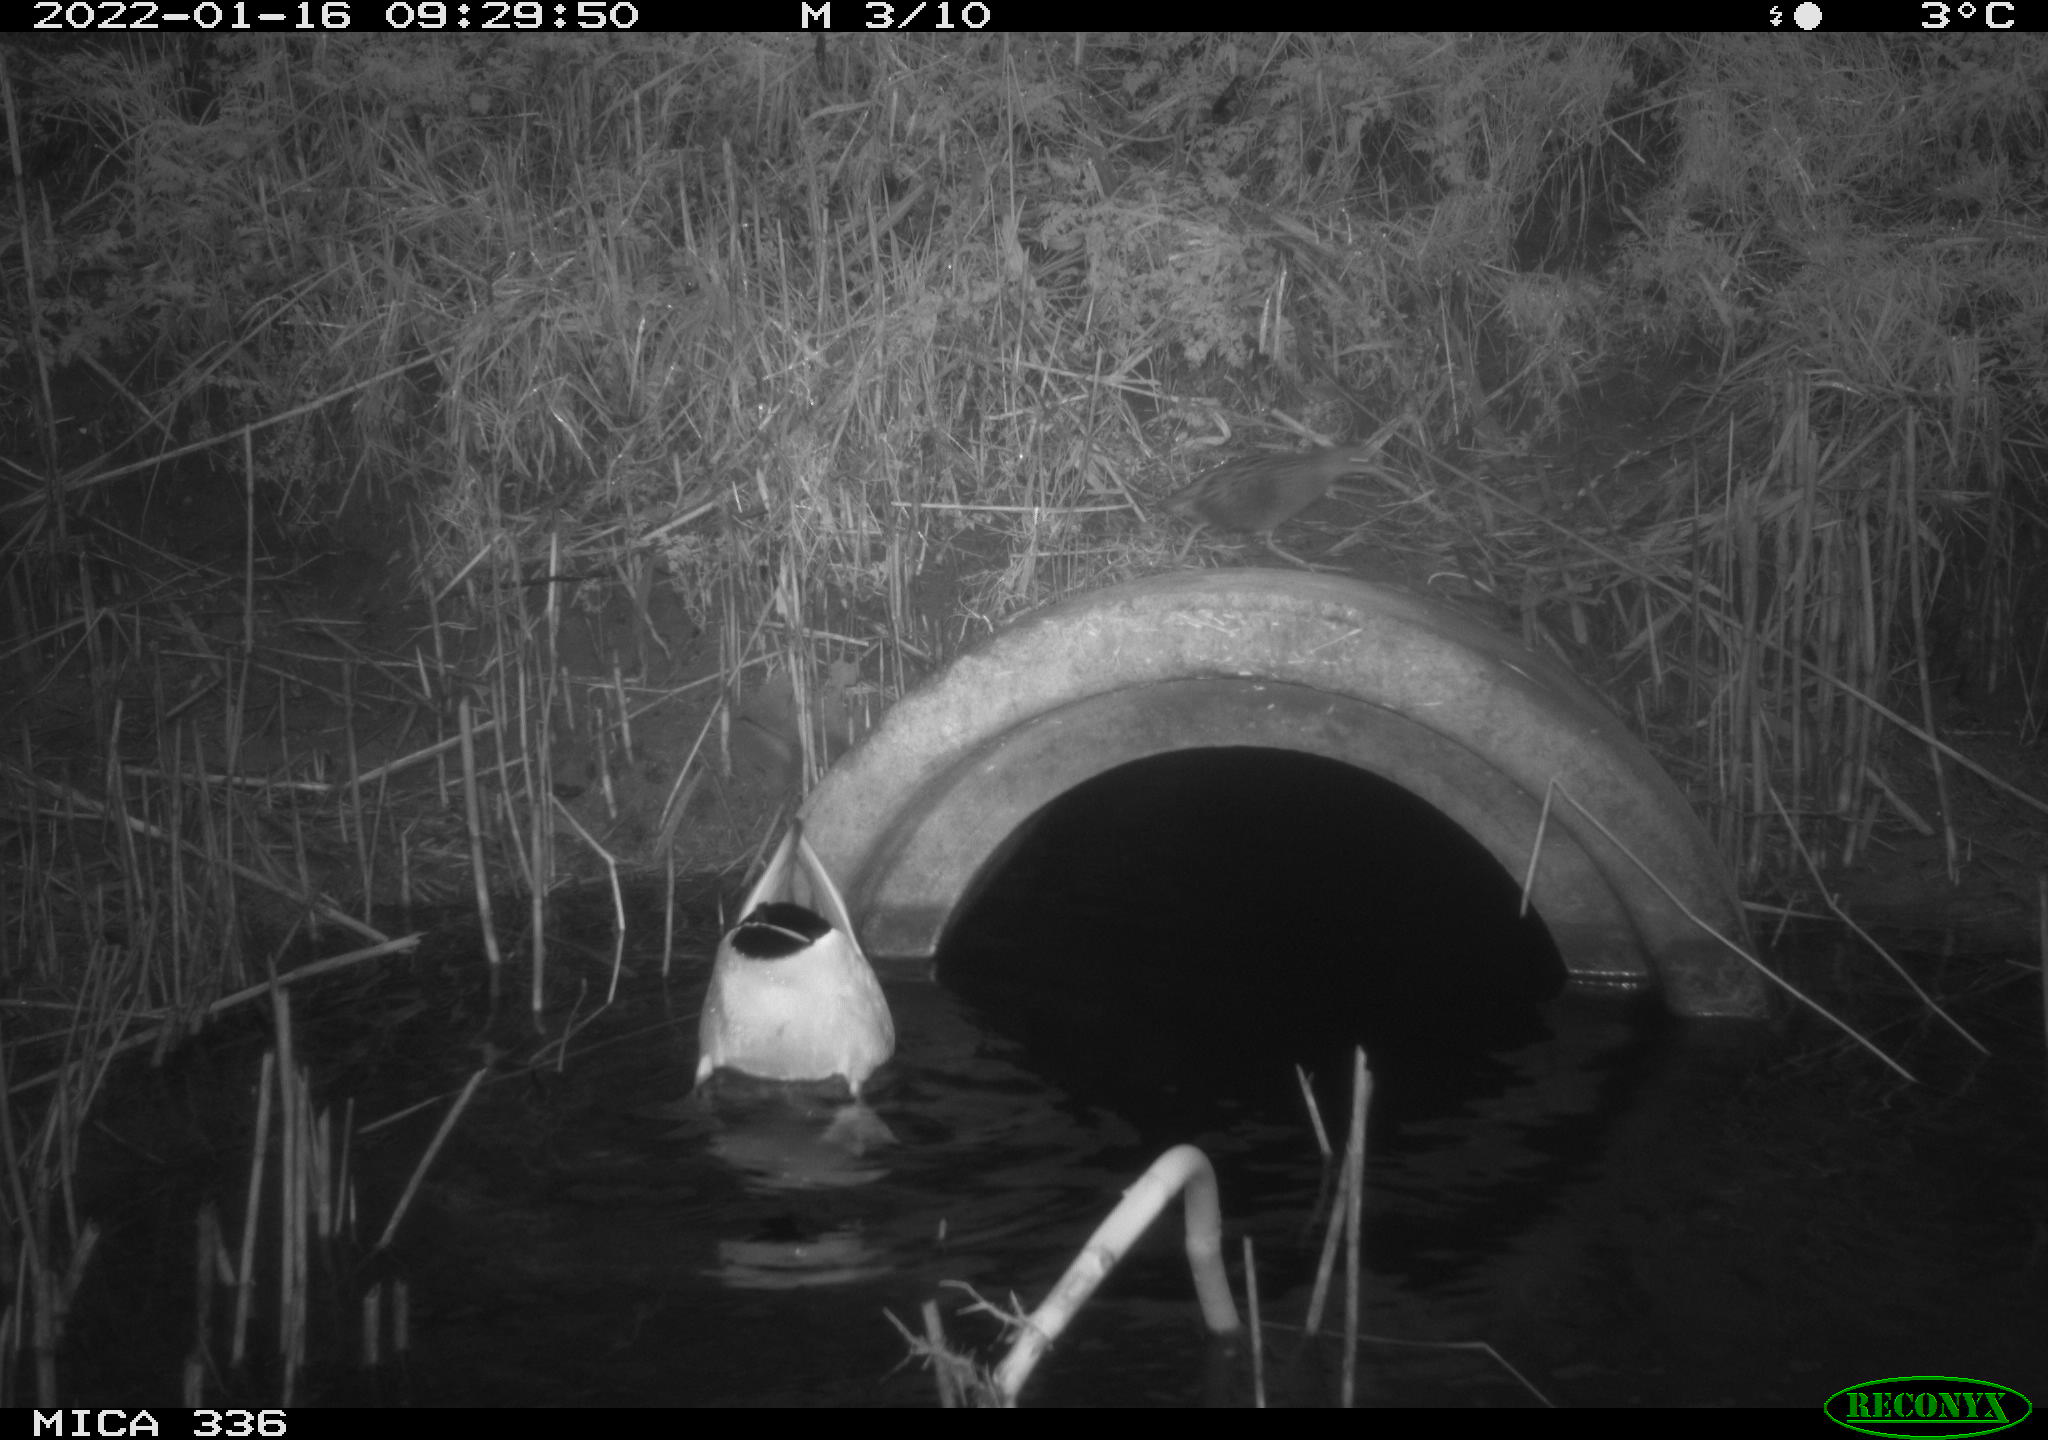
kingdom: Animalia
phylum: Chordata
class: Aves
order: Anseriformes
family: Anatidae
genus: Anas
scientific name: Anas platyrhynchos
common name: Mallard
